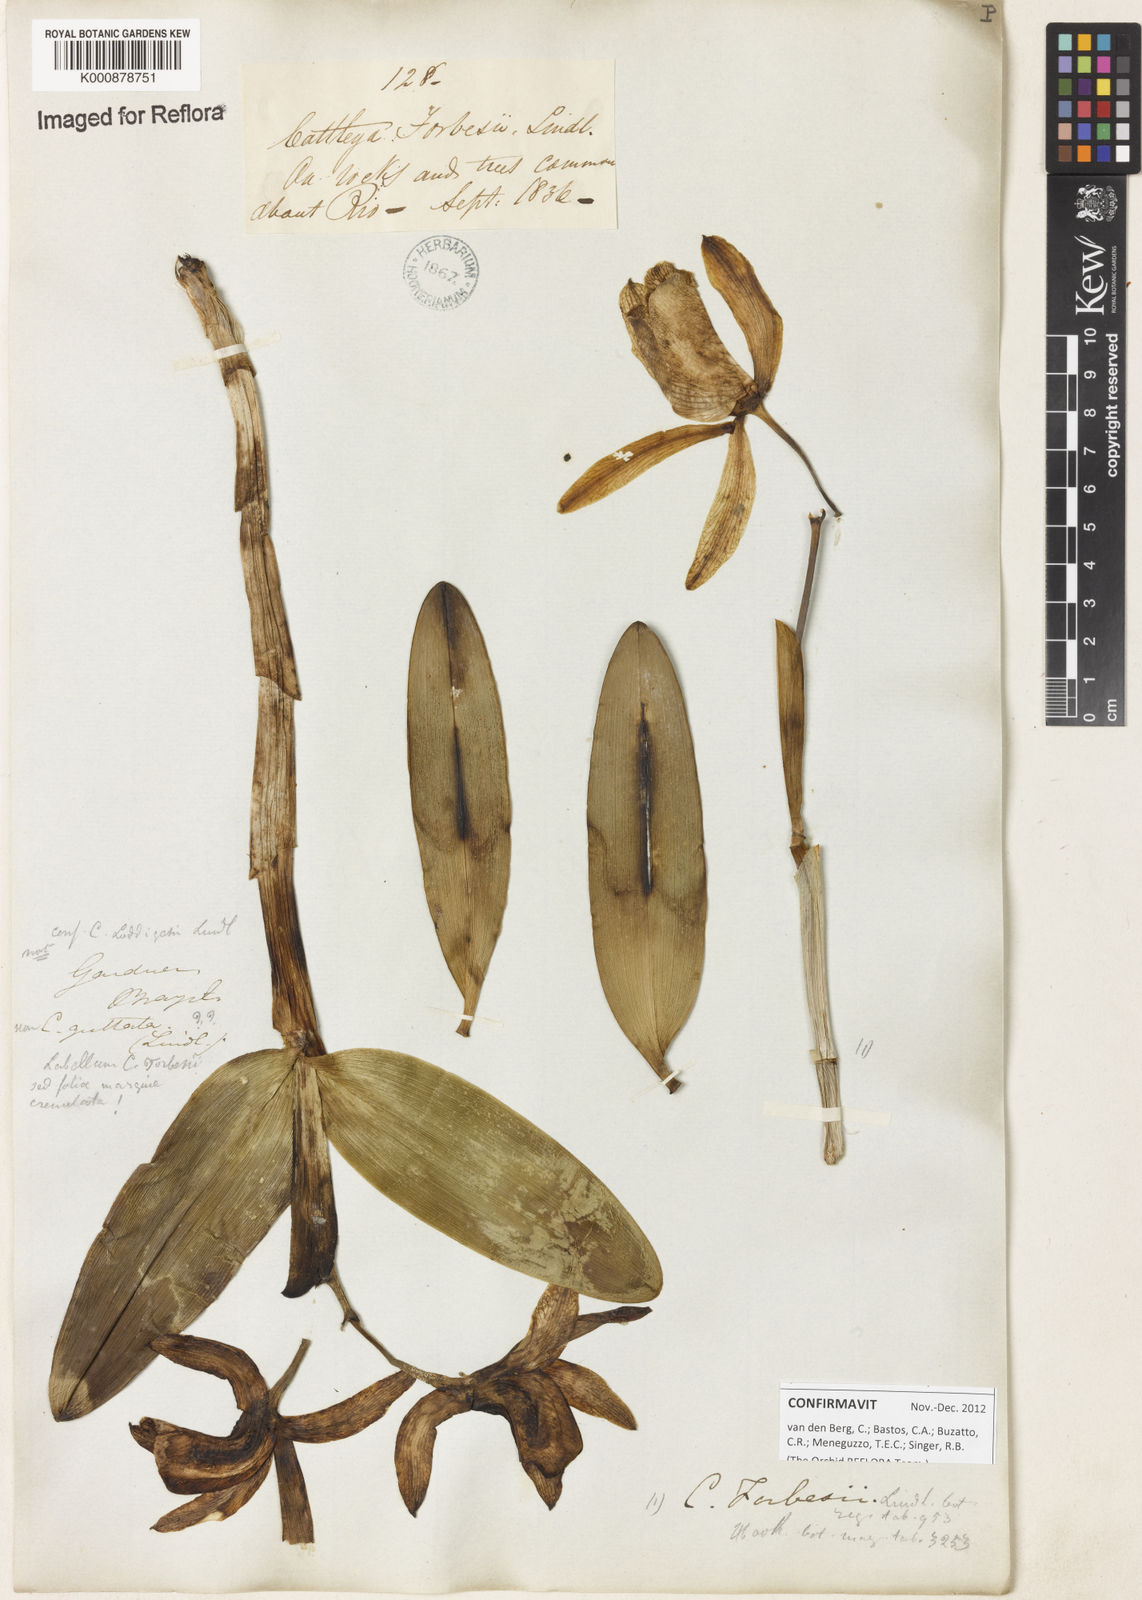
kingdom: Plantae
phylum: Tracheophyta
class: Liliopsida
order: Asparagales
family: Orchidaceae
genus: Cattleya
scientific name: Cattleya forbesii
